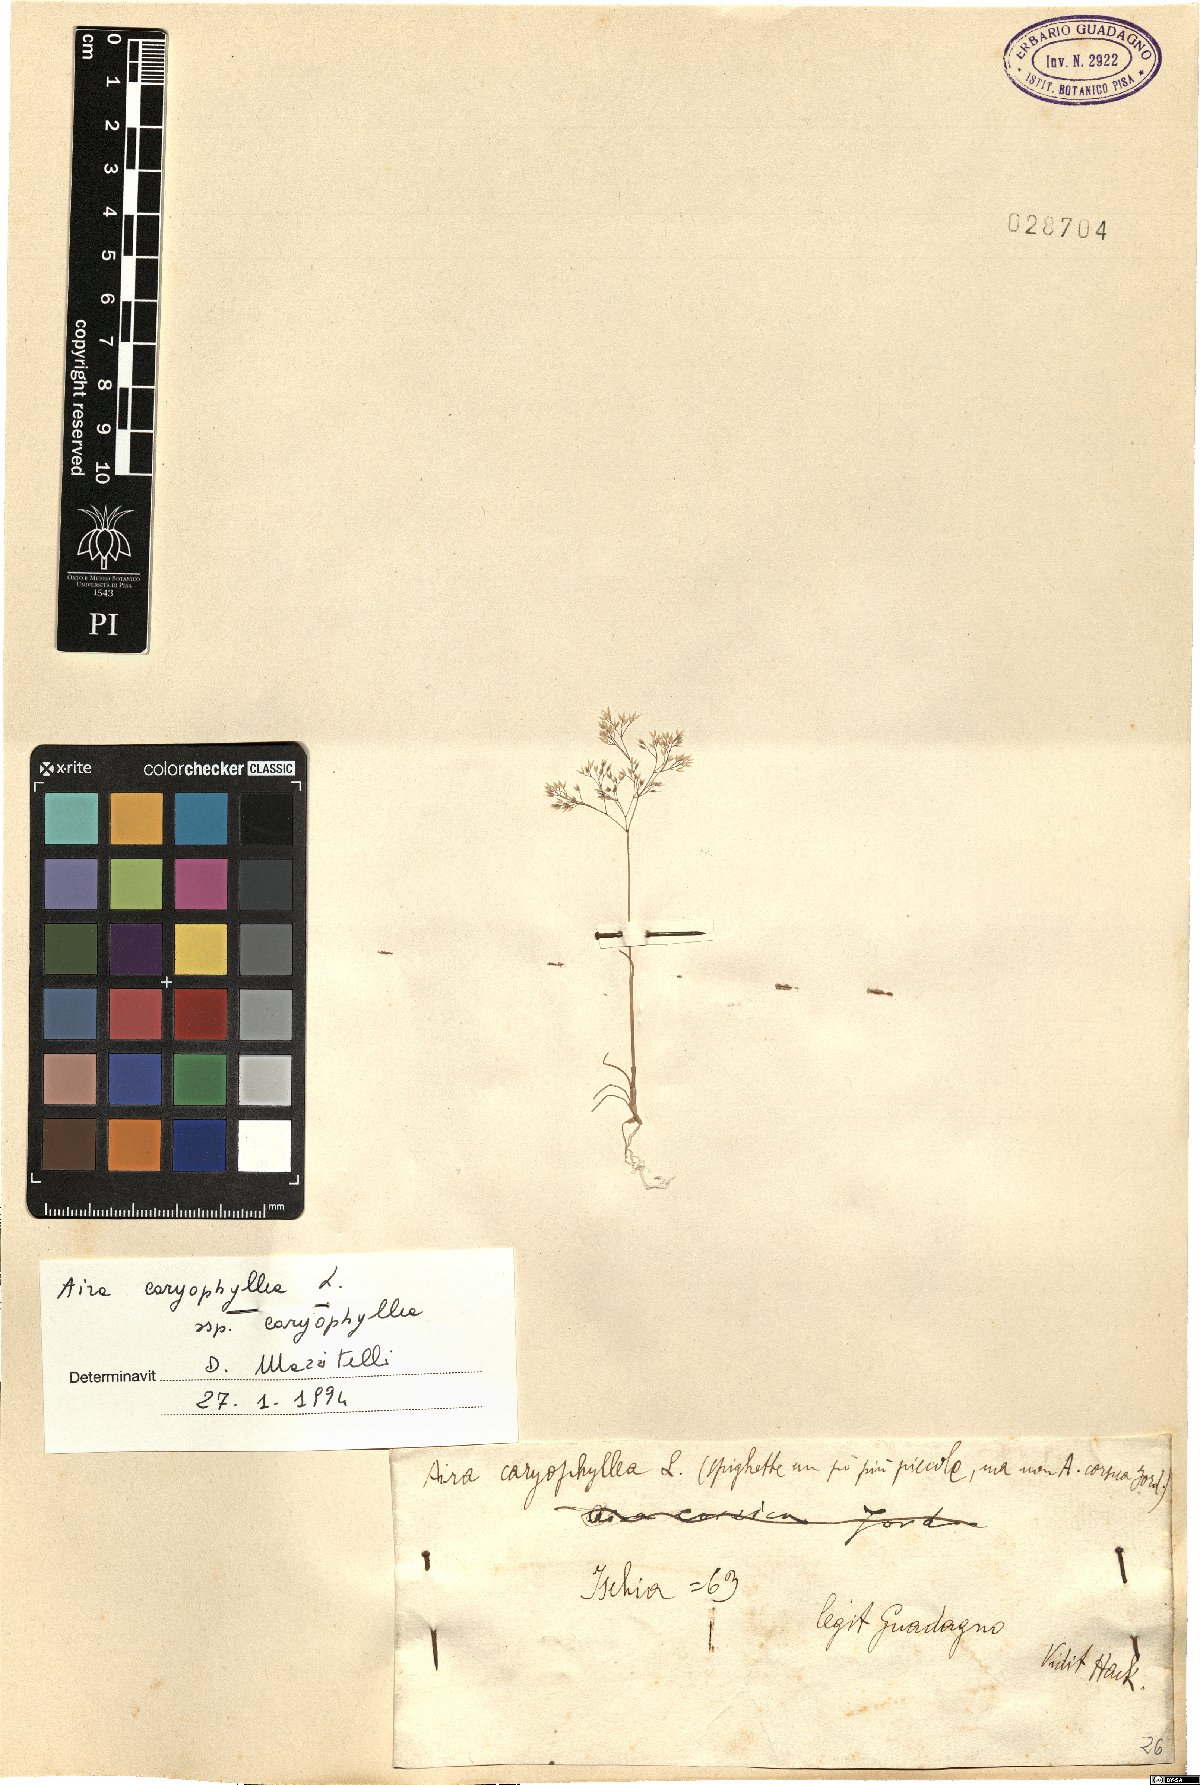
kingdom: Plantae
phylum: Tracheophyta
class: Liliopsida
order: Poales
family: Poaceae
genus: Aira
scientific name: Aira caryophyllea
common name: Silver hairgrass
